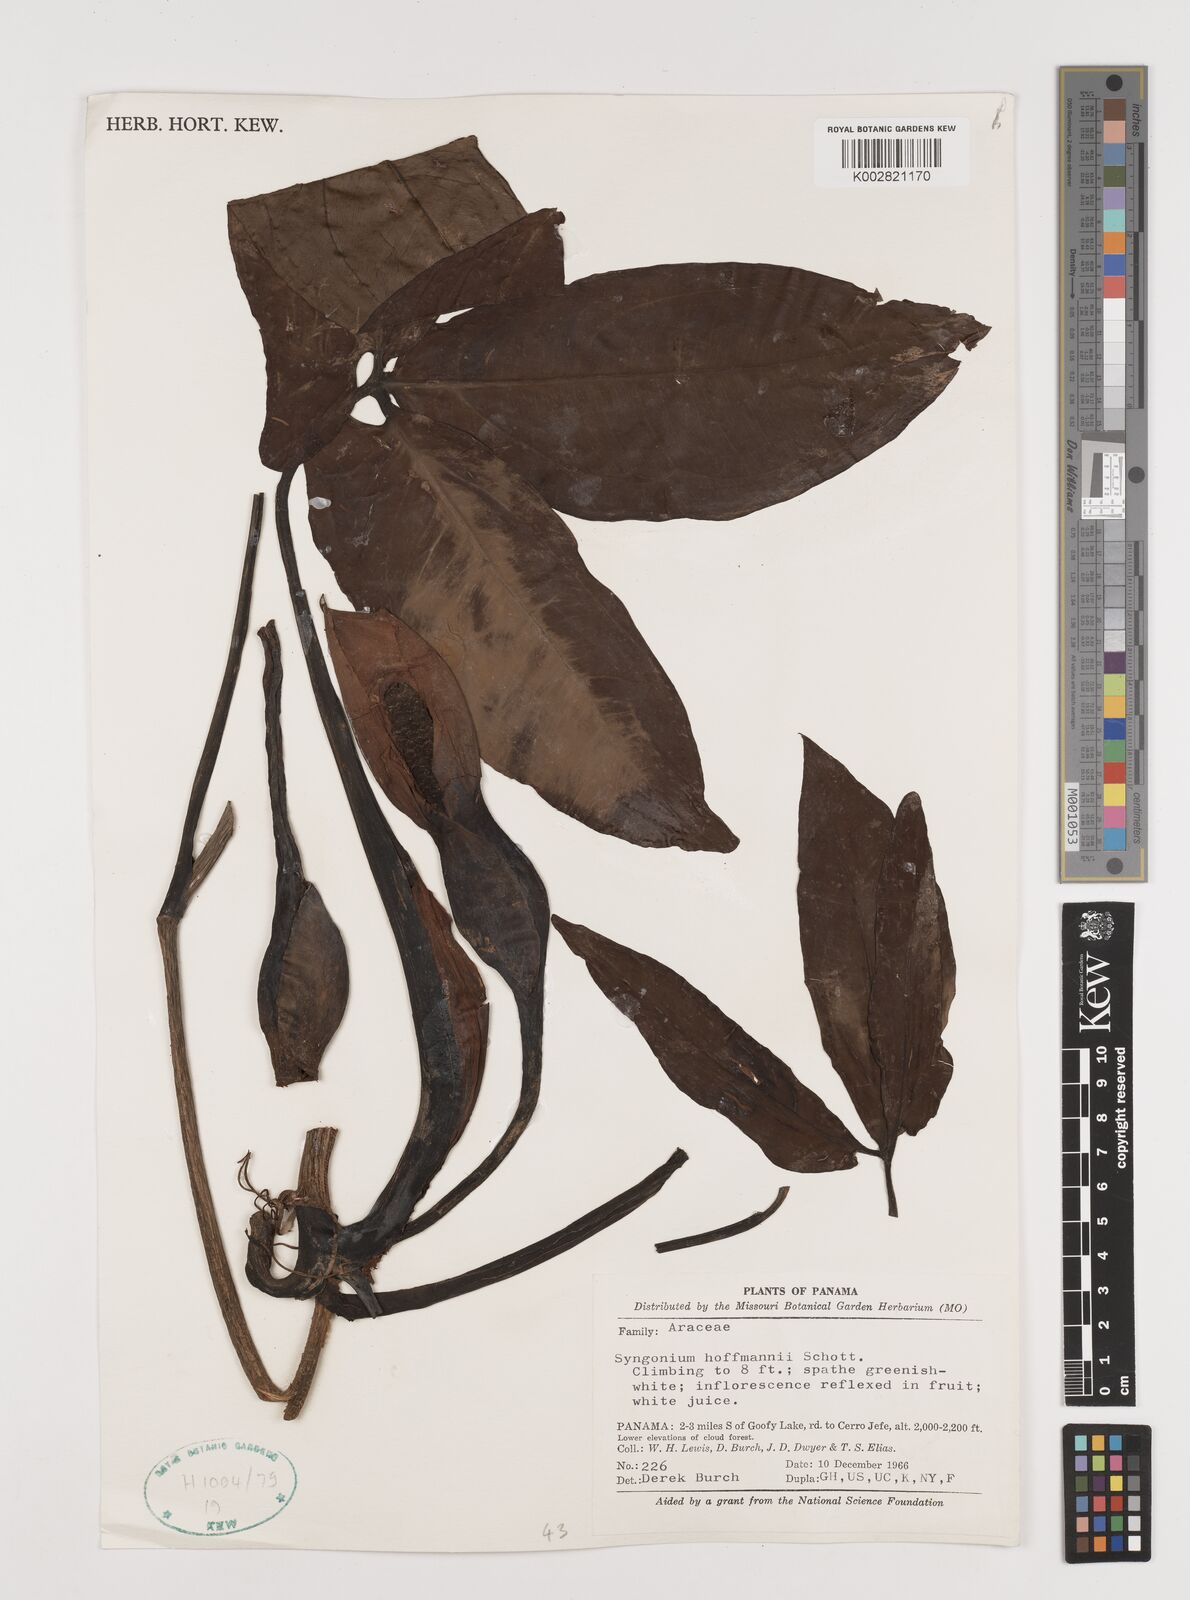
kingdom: Plantae
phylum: Tracheophyta
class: Liliopsida
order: Alismatales
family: Araceae
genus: Syngonium
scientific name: Syngonium hoffmannii
